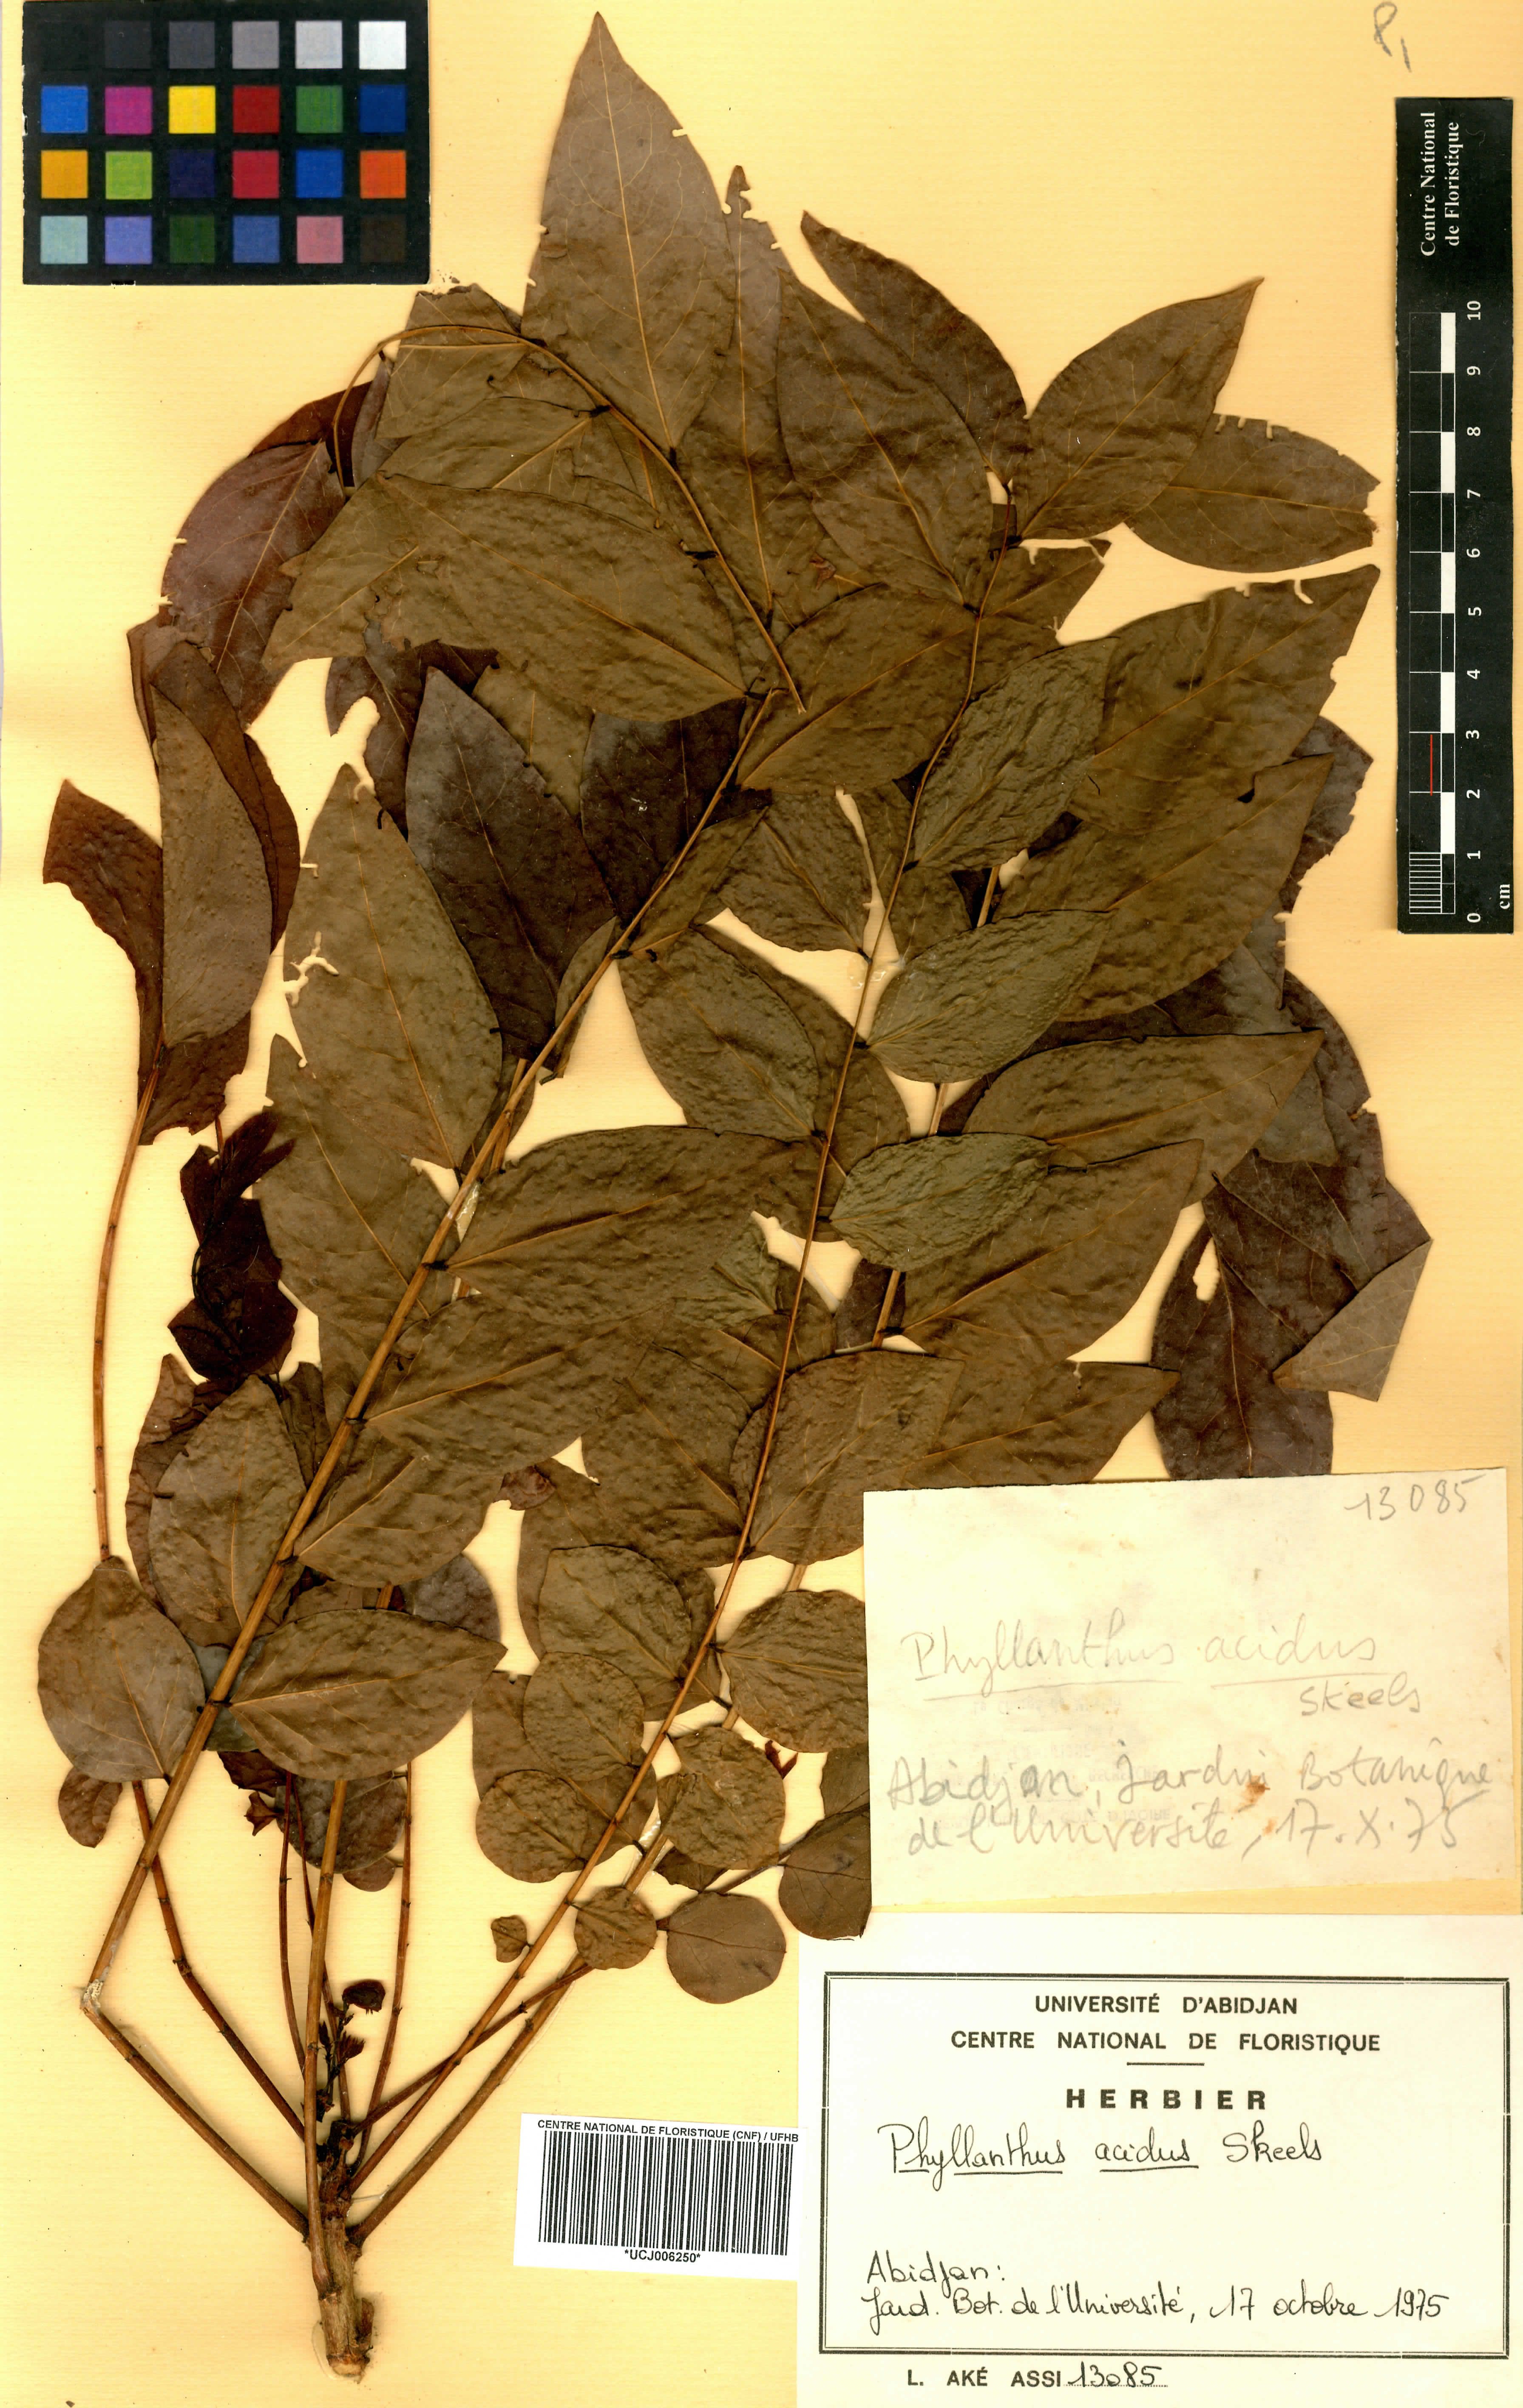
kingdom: Plantae
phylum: Tracheophyta
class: Magnoliopsida
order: Malpighiales
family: Phyllanthaceae
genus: Phyllanthus
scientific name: Phyllanthus acidus
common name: Tahitian gooseberry tree
